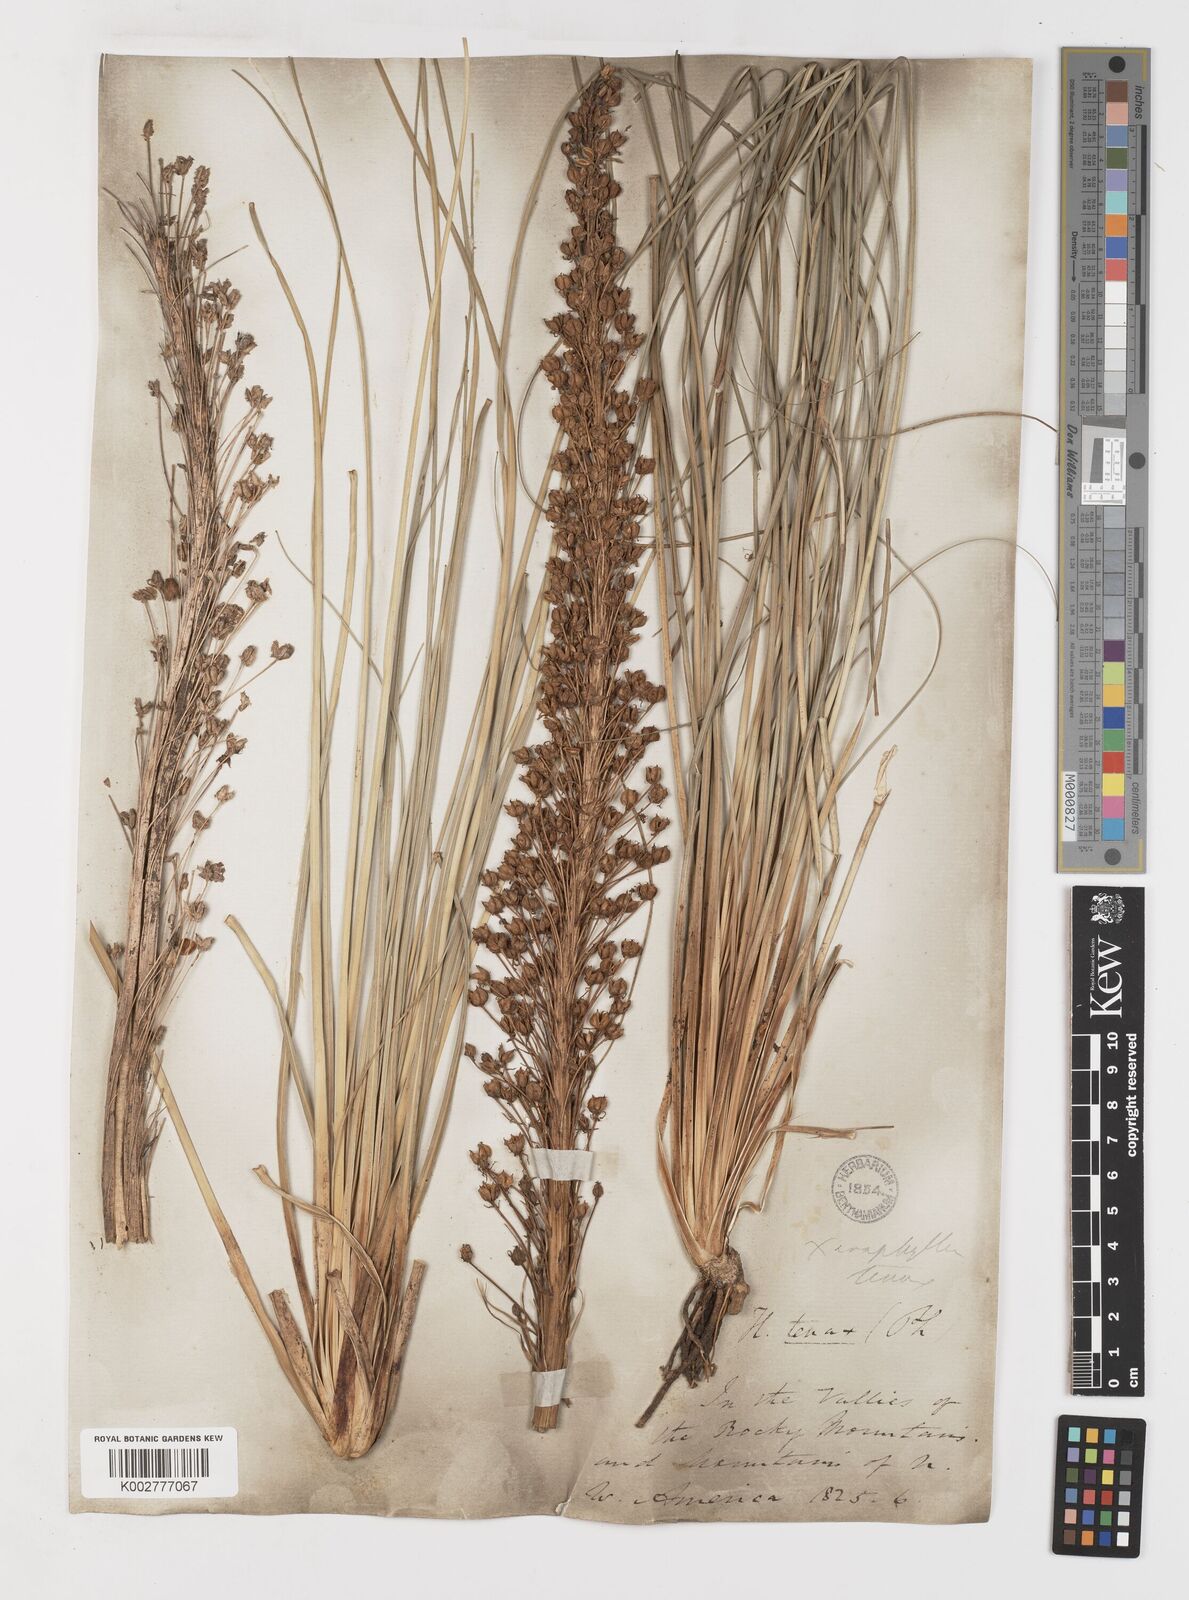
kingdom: Plantae
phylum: Tracheophyta
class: Liliopsida
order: Liliales
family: Melanthiaceae
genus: Xerophyllum
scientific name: Xerophyllum tenax
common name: Bear-grass
